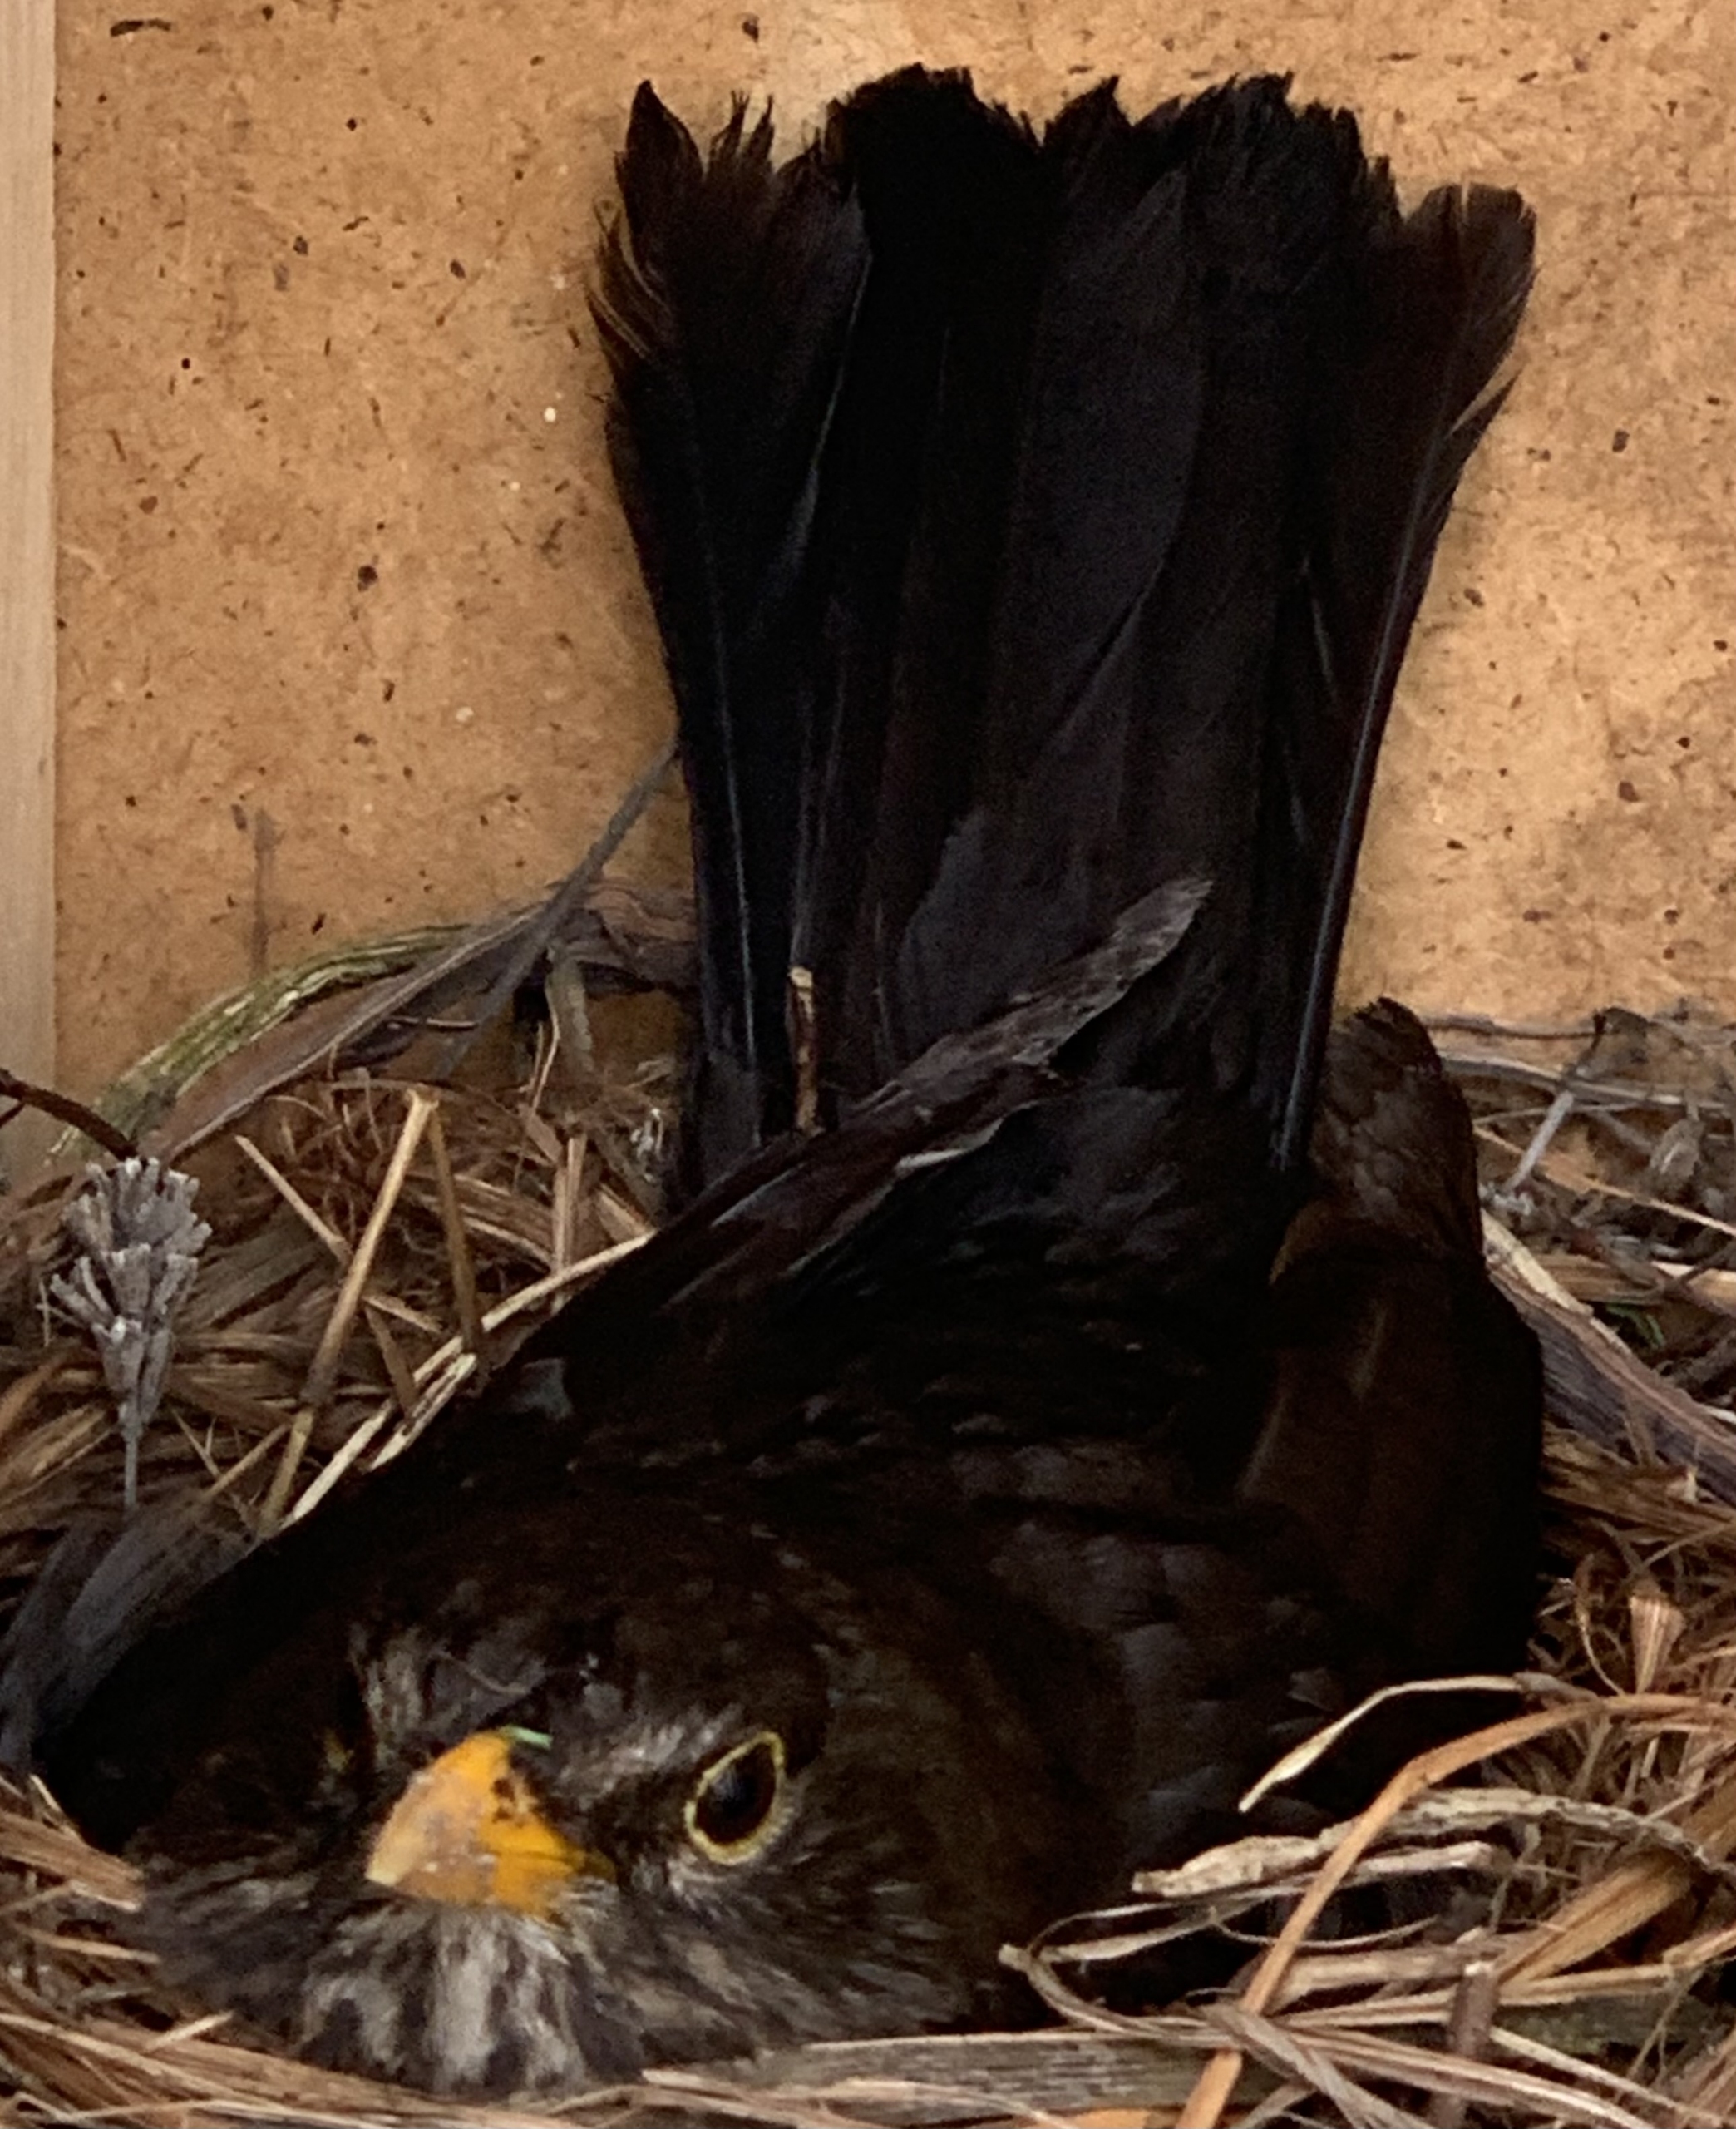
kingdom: Animalia
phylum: Chordata
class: Aves
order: Passeriformes
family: Turdidae
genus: Turdus
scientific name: Turdus merula
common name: Solsort
